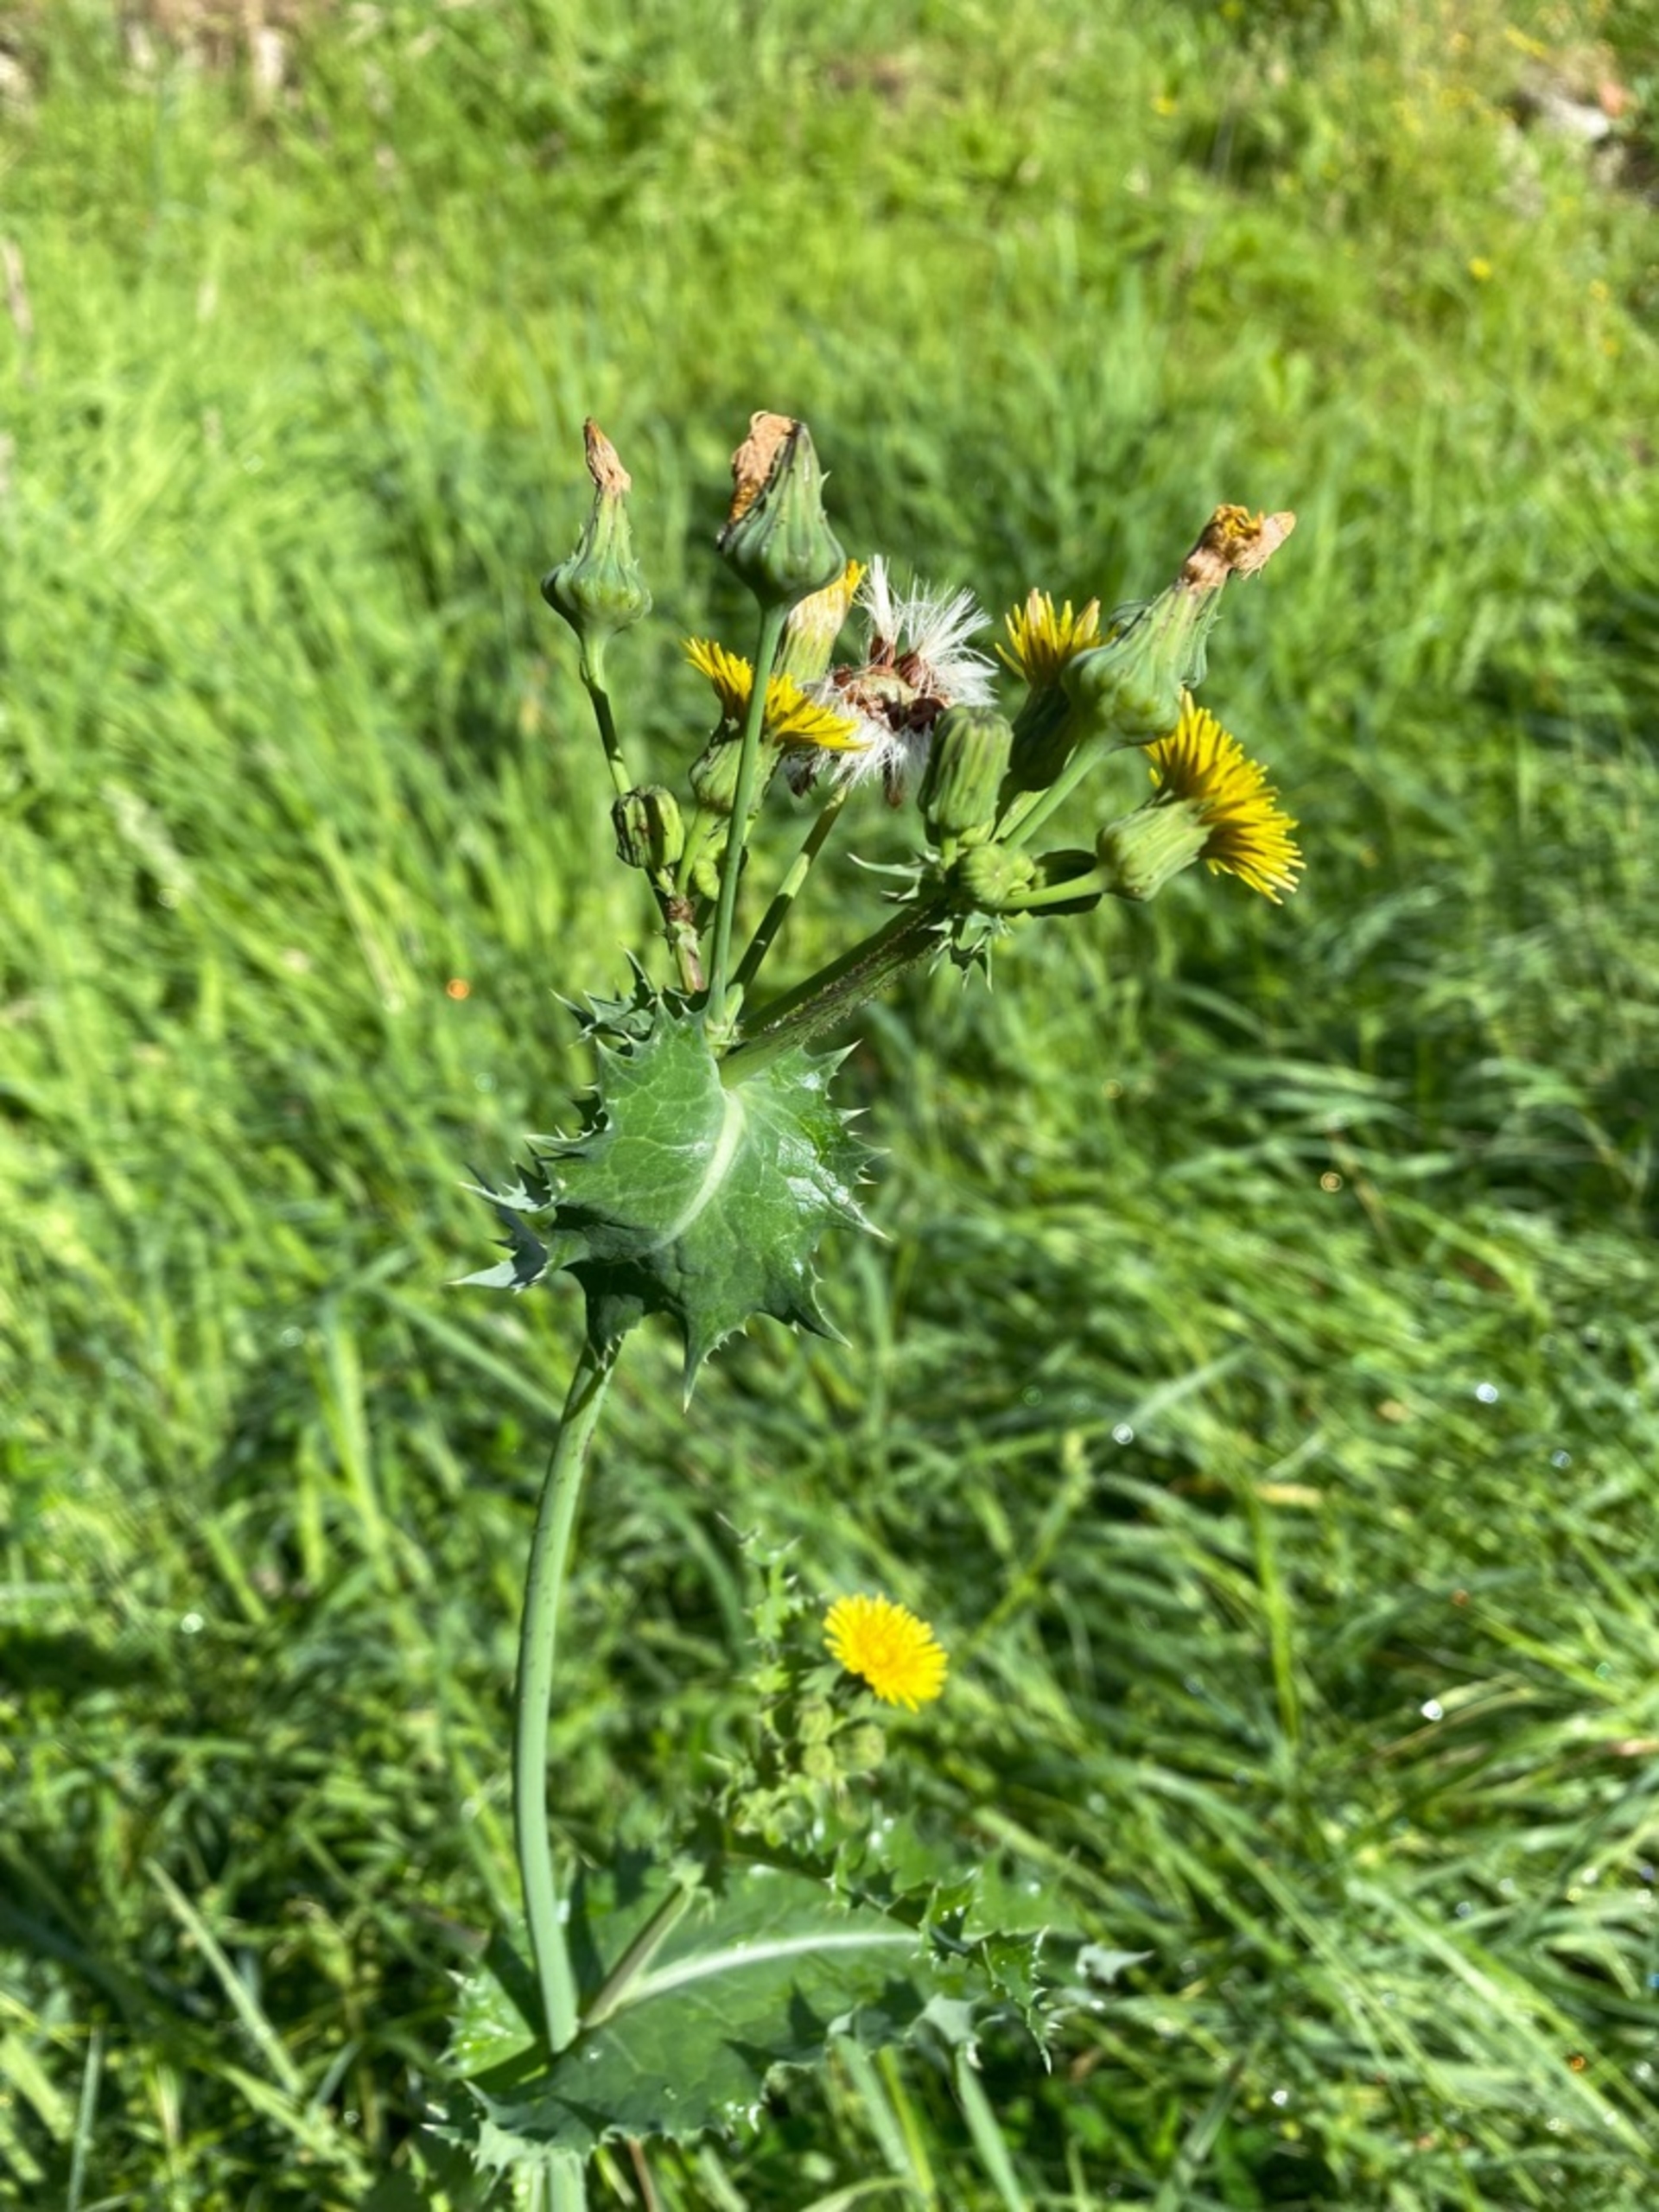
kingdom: Plantae
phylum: Tracheophyta
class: Magnoliopsida
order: Asterales
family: Asteraceae
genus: Sonchus
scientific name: Sonchus asper
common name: Ru svinemælk
